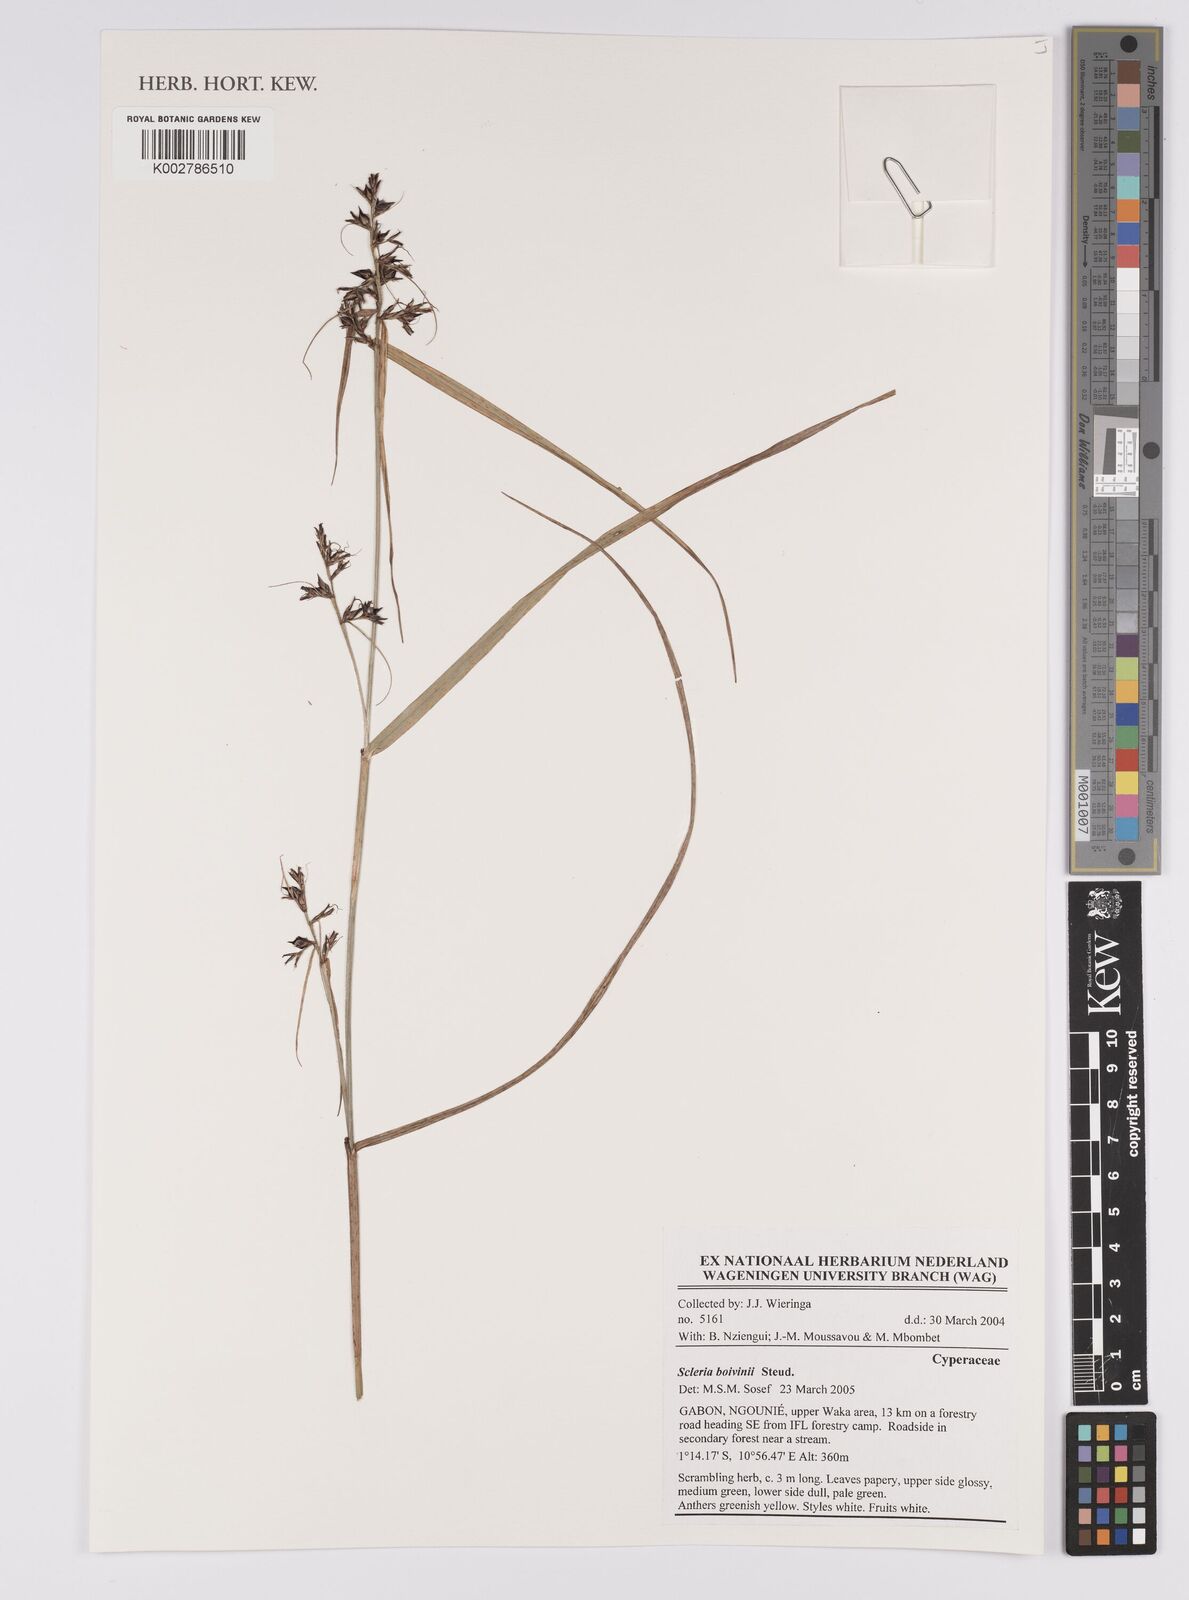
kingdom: Plantae
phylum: Tracheophyta
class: Liliopsida
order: Poales
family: Cyperaceae
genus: Scleria
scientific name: Scleria boivinii
